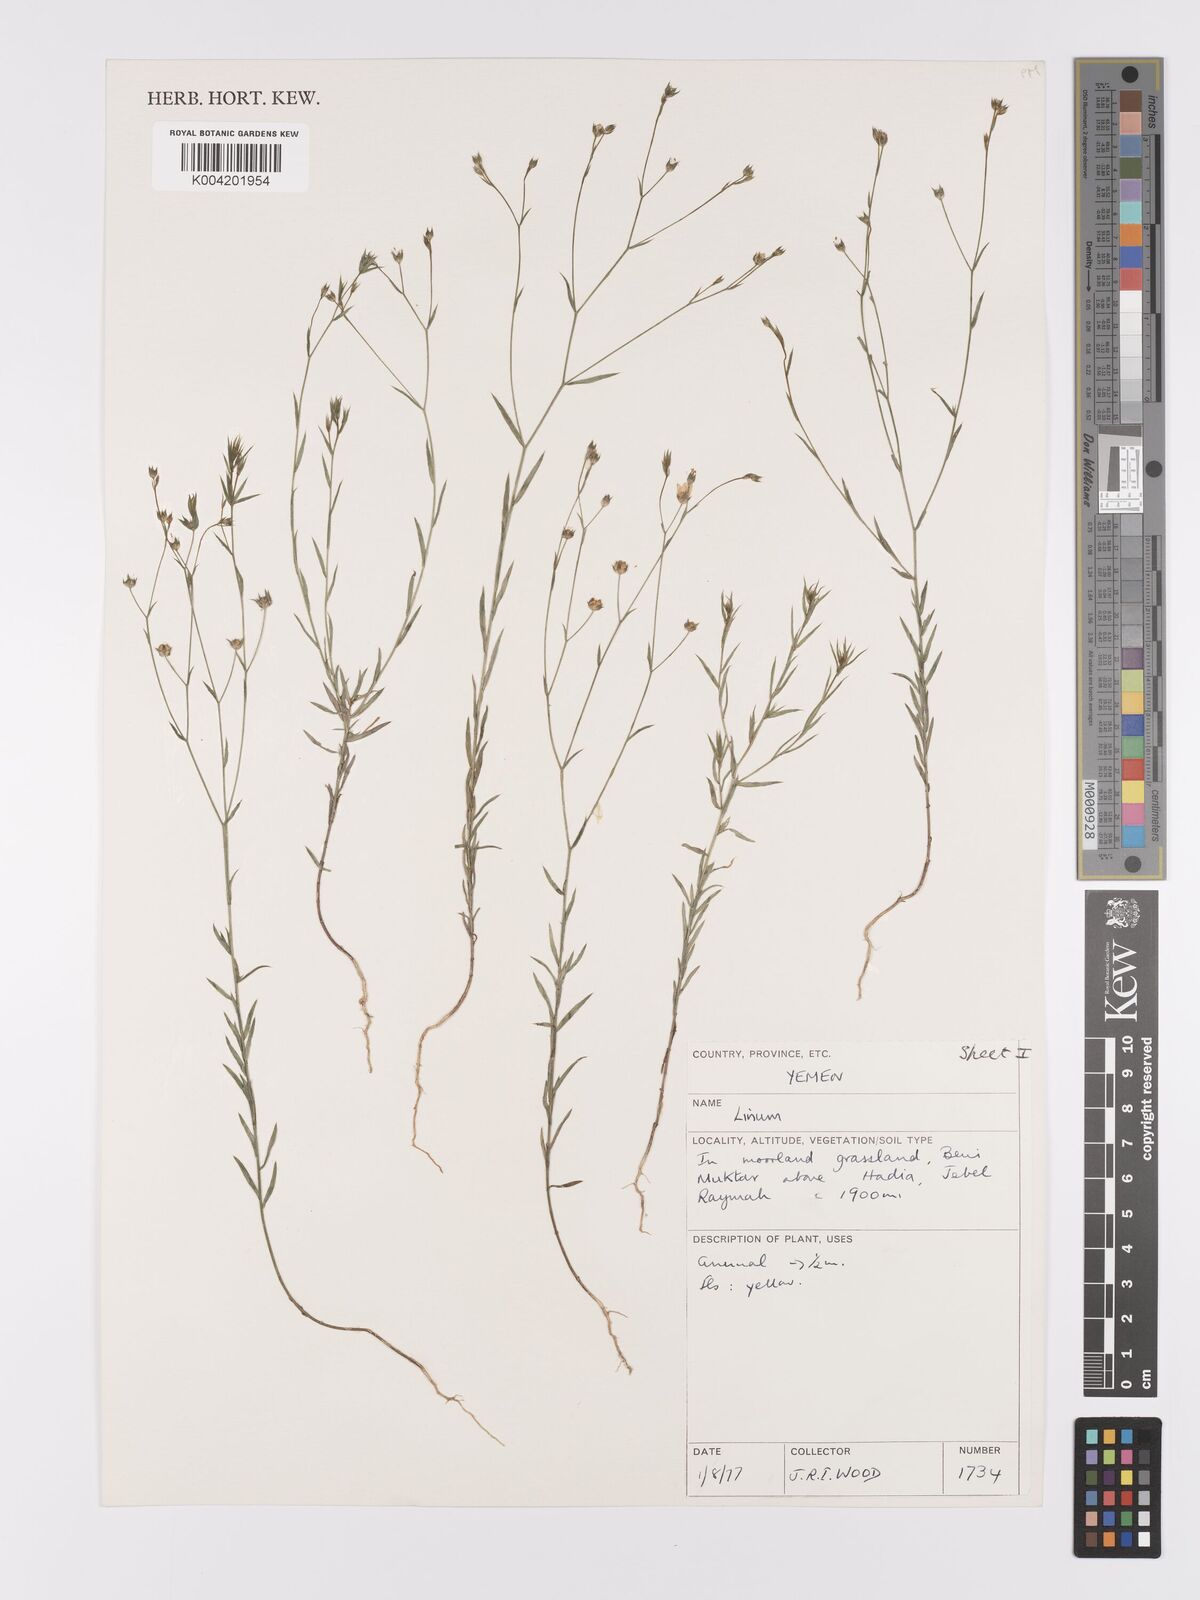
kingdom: Plantae
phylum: Tracheophyta
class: Magnoliopsida
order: Malpighiales
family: Linaceae
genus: Linum
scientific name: Linum
